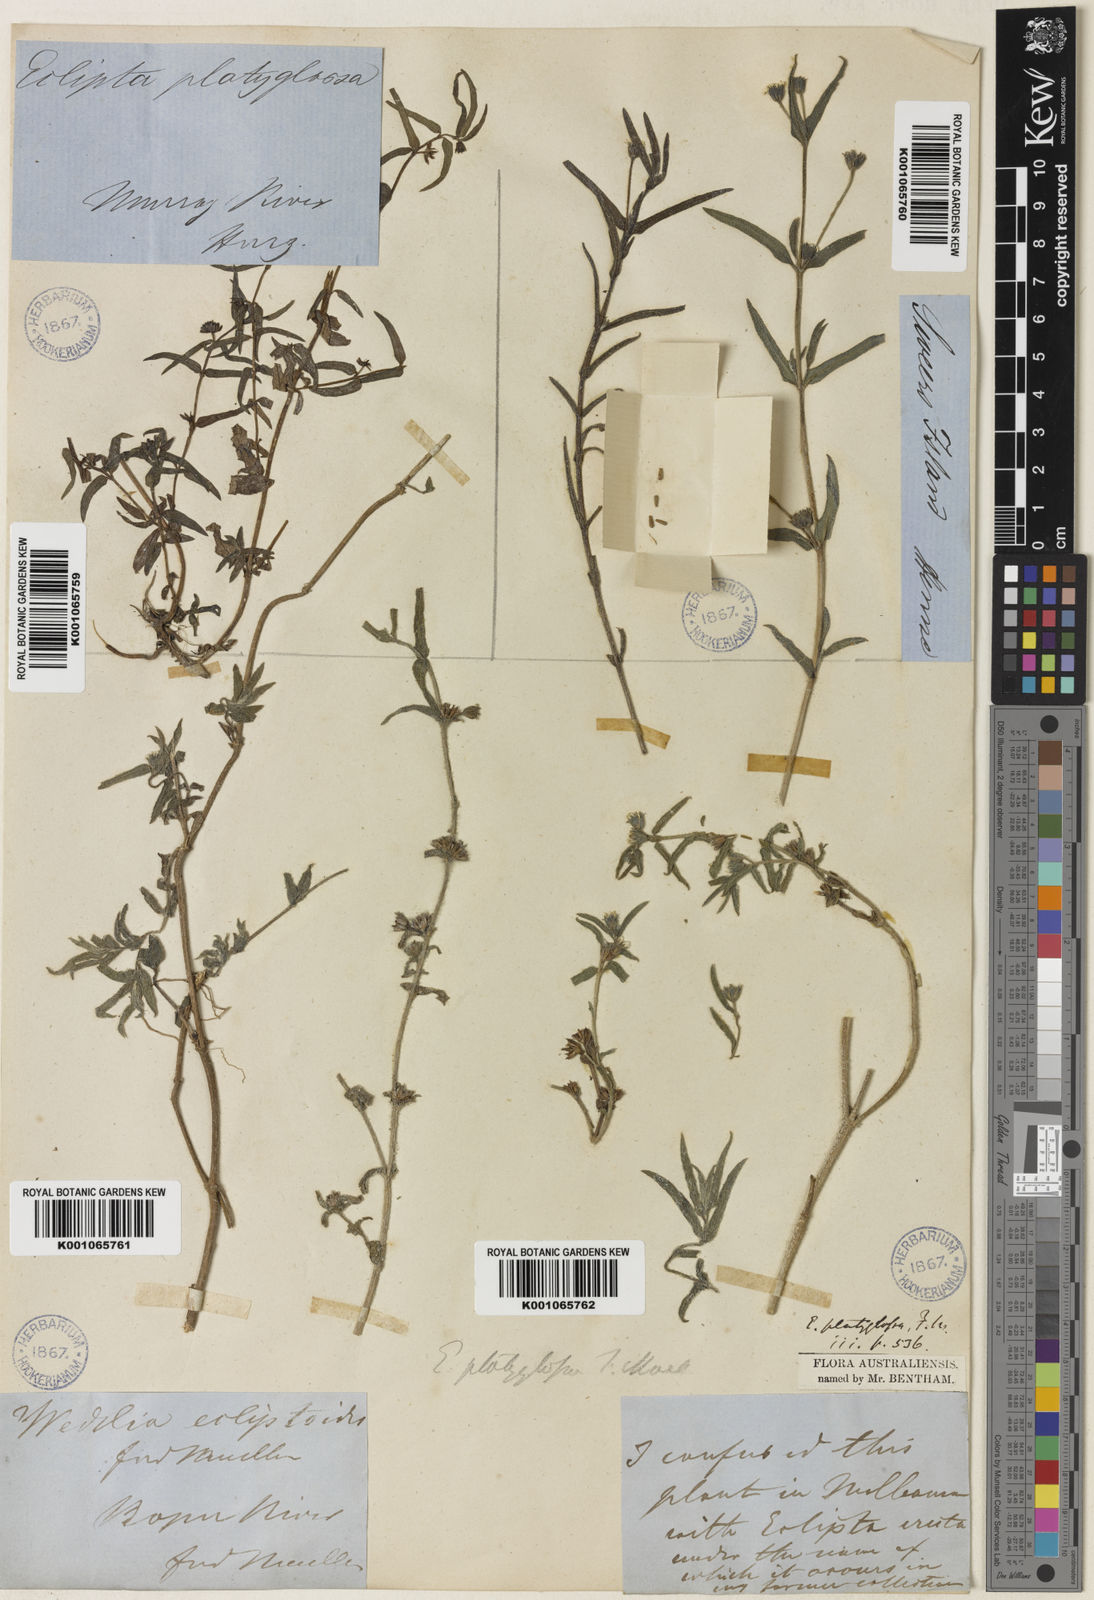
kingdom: Plantae
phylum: Tracheophyta
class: Magnoliopsida
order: Asterales
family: Asteraceae
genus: Eclipta
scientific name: Eclipta platyglossa
